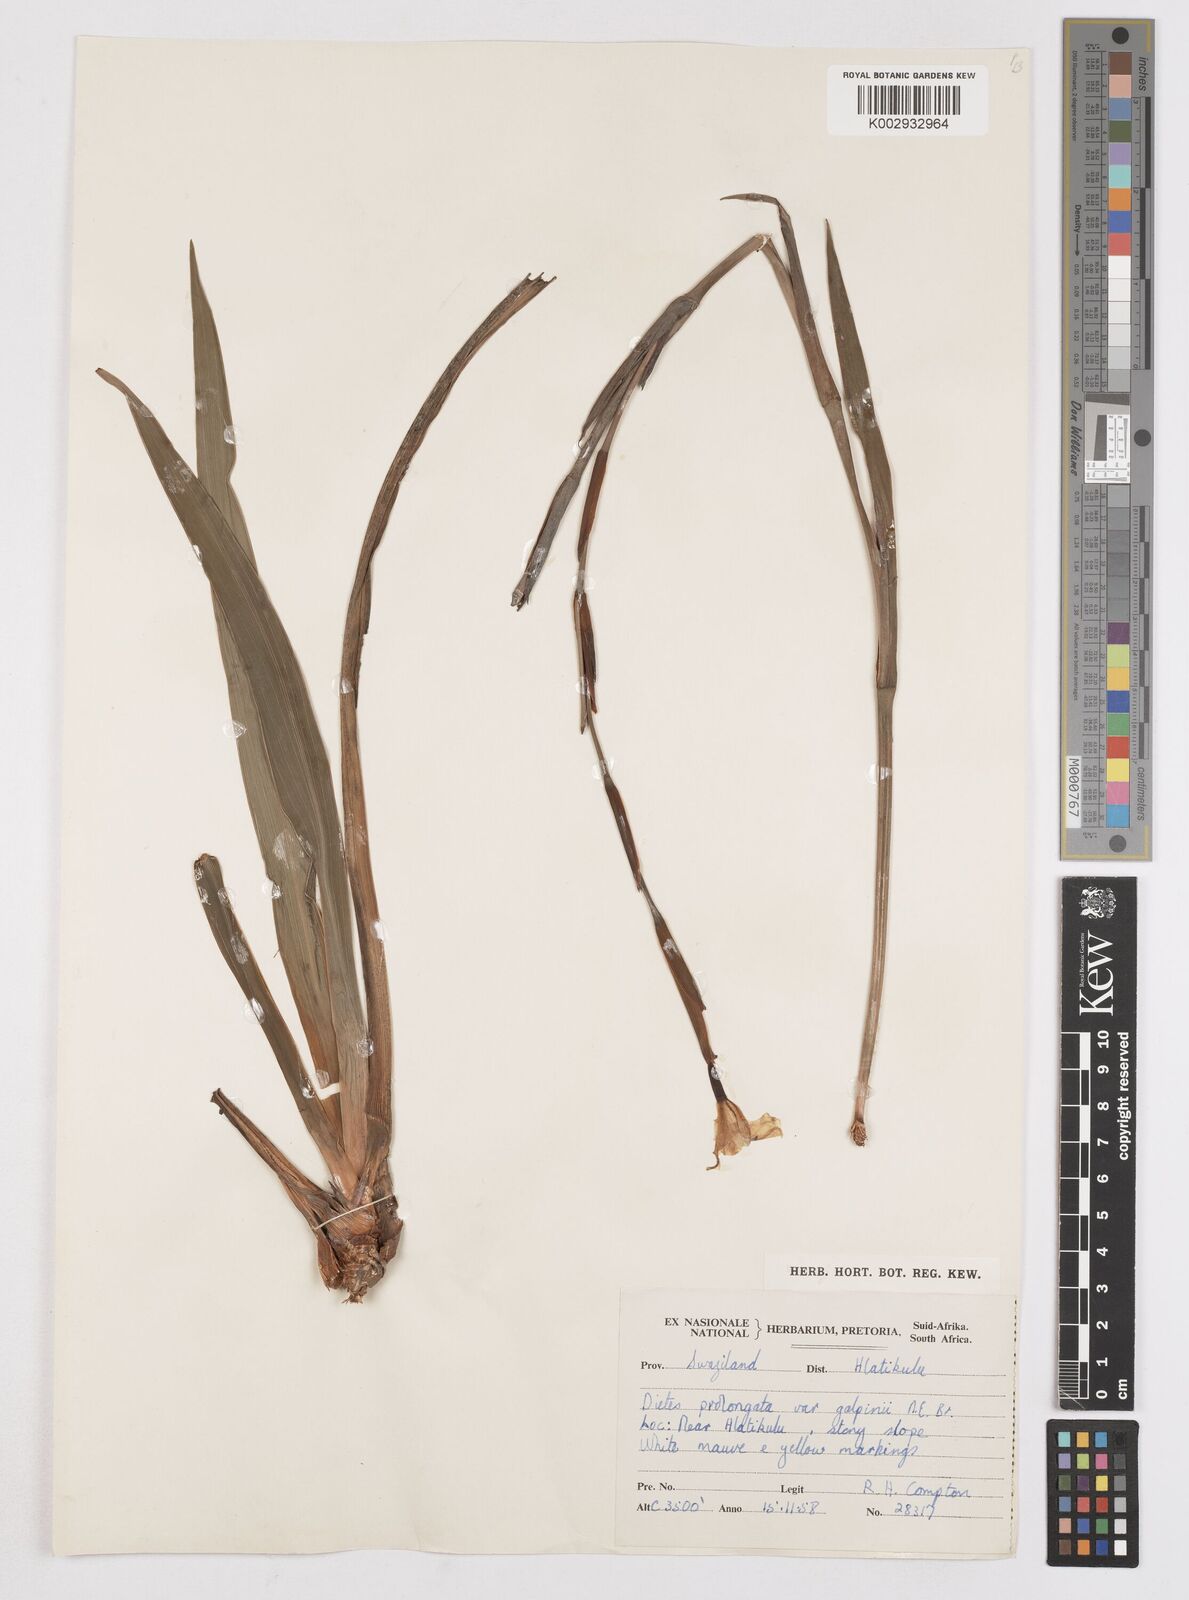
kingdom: Plantae
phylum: Tracheophyta
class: Liliopsida
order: Asparagales
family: Iridaceae
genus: Dietes
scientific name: Dietes iridioides
